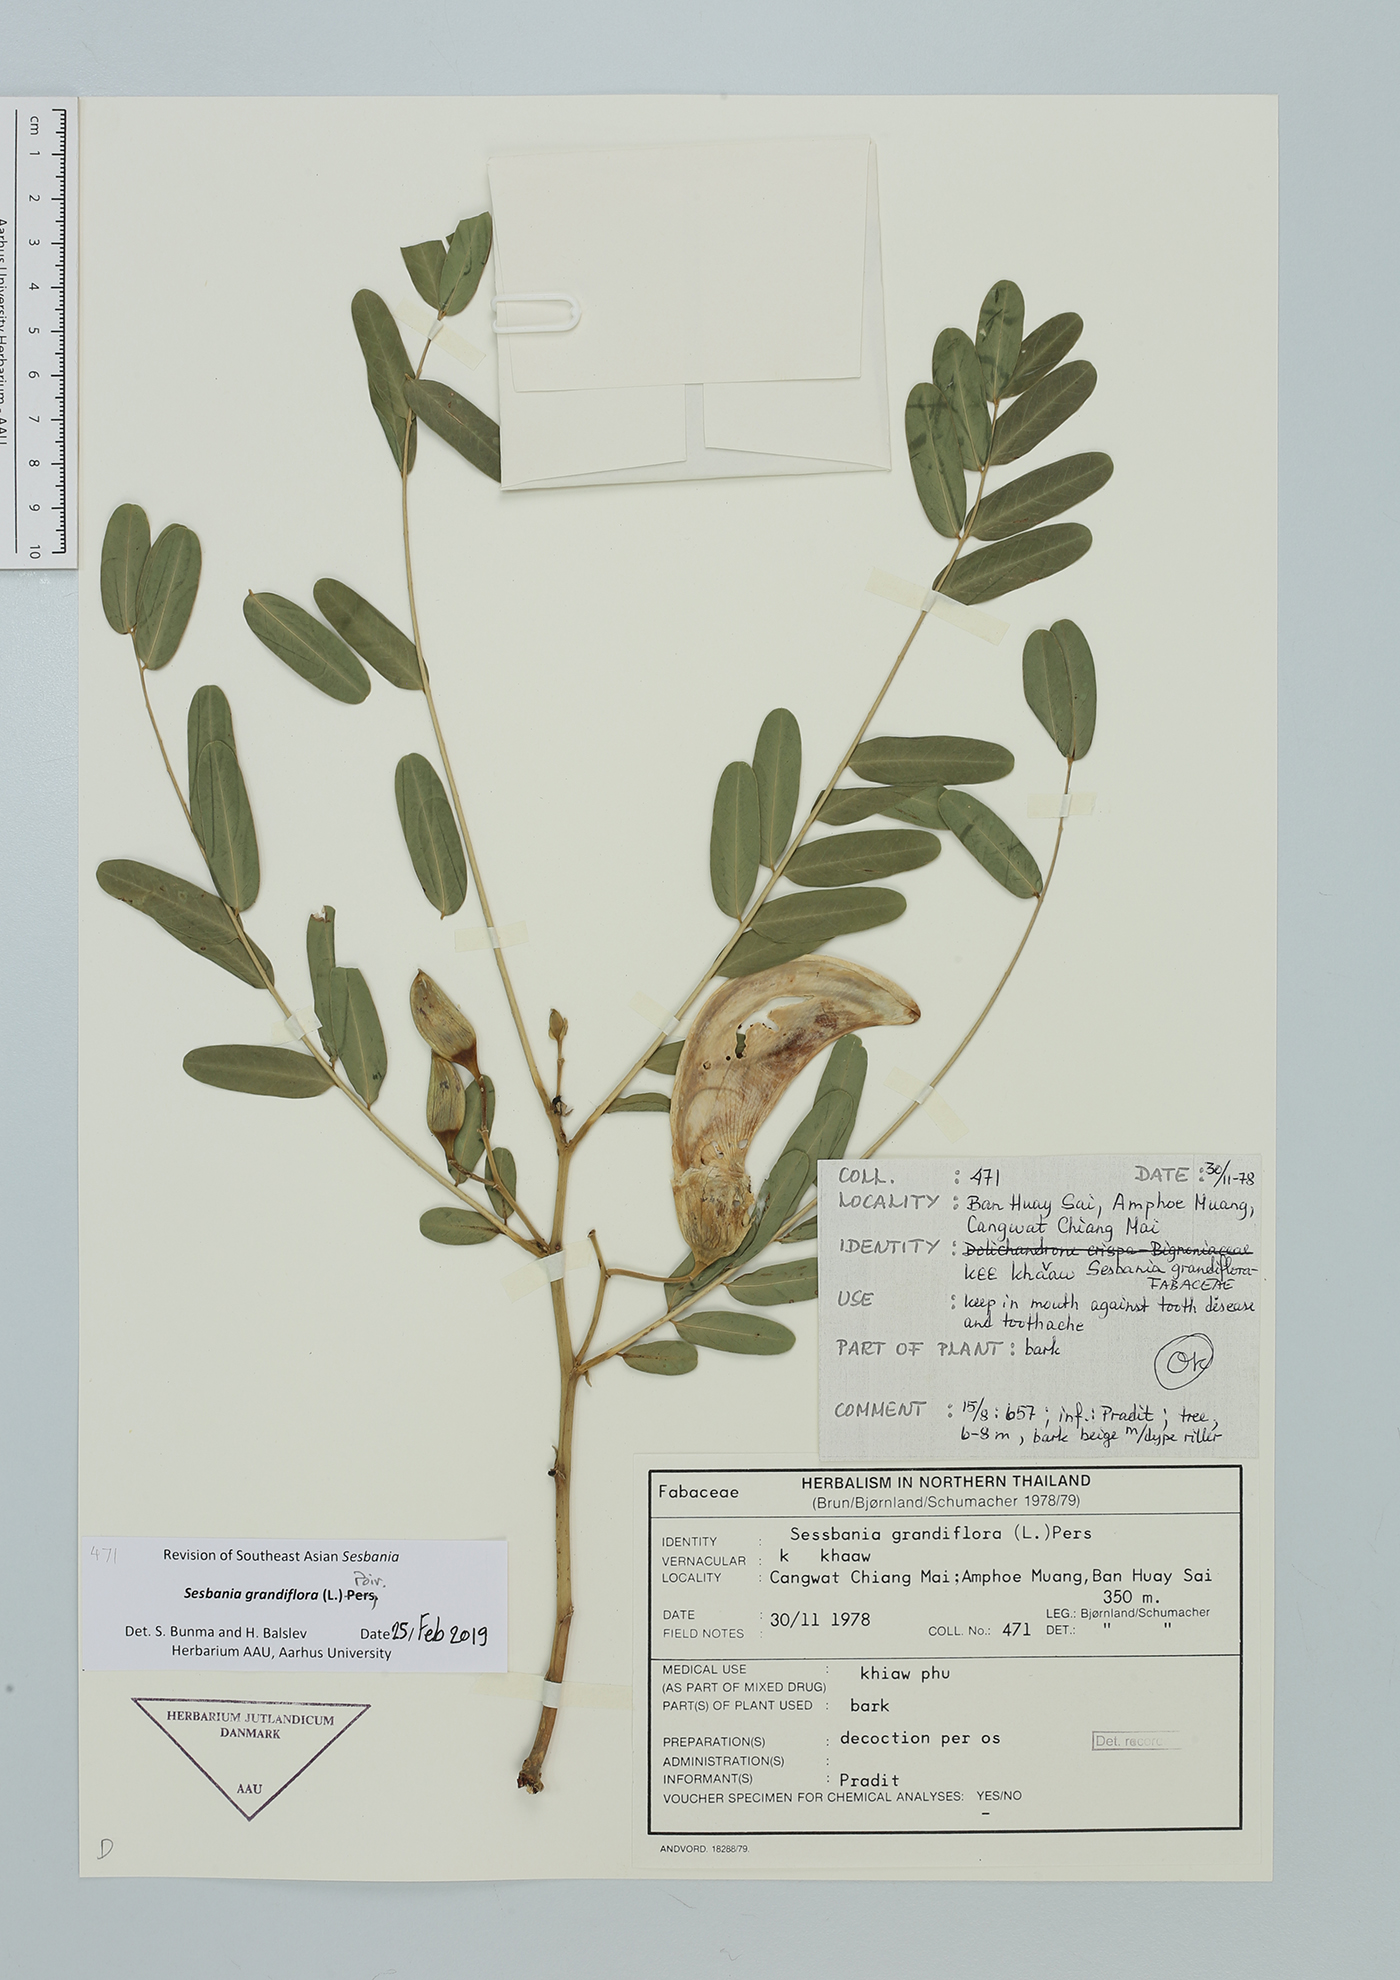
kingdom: Plantae
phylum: Tracheophyta
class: Magnoliopsida
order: Fabales
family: Fabaceae
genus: Sesbania
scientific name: Sesbania grandiflora
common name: Vegetable-hummingbird
